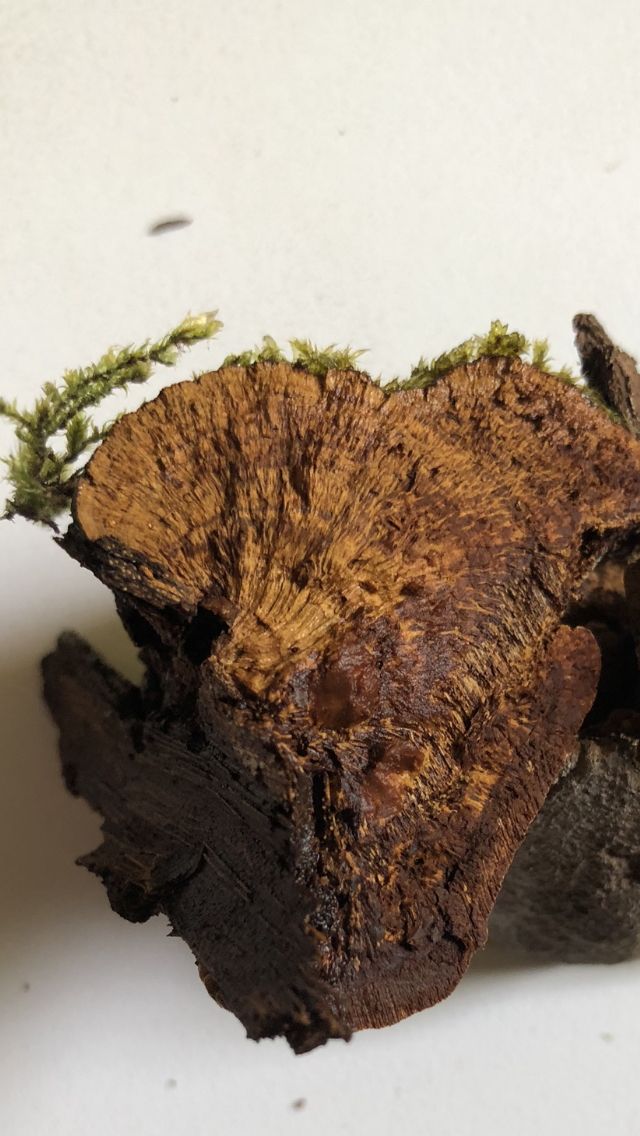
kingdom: Fungi
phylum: Basidiomycota
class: Agaricomycetes
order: Hymenochaetales
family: Hymenochaetaceae
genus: Fomitiporia
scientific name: Fomitiporia hippophaeicola
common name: havtorn-ildporesvamp
